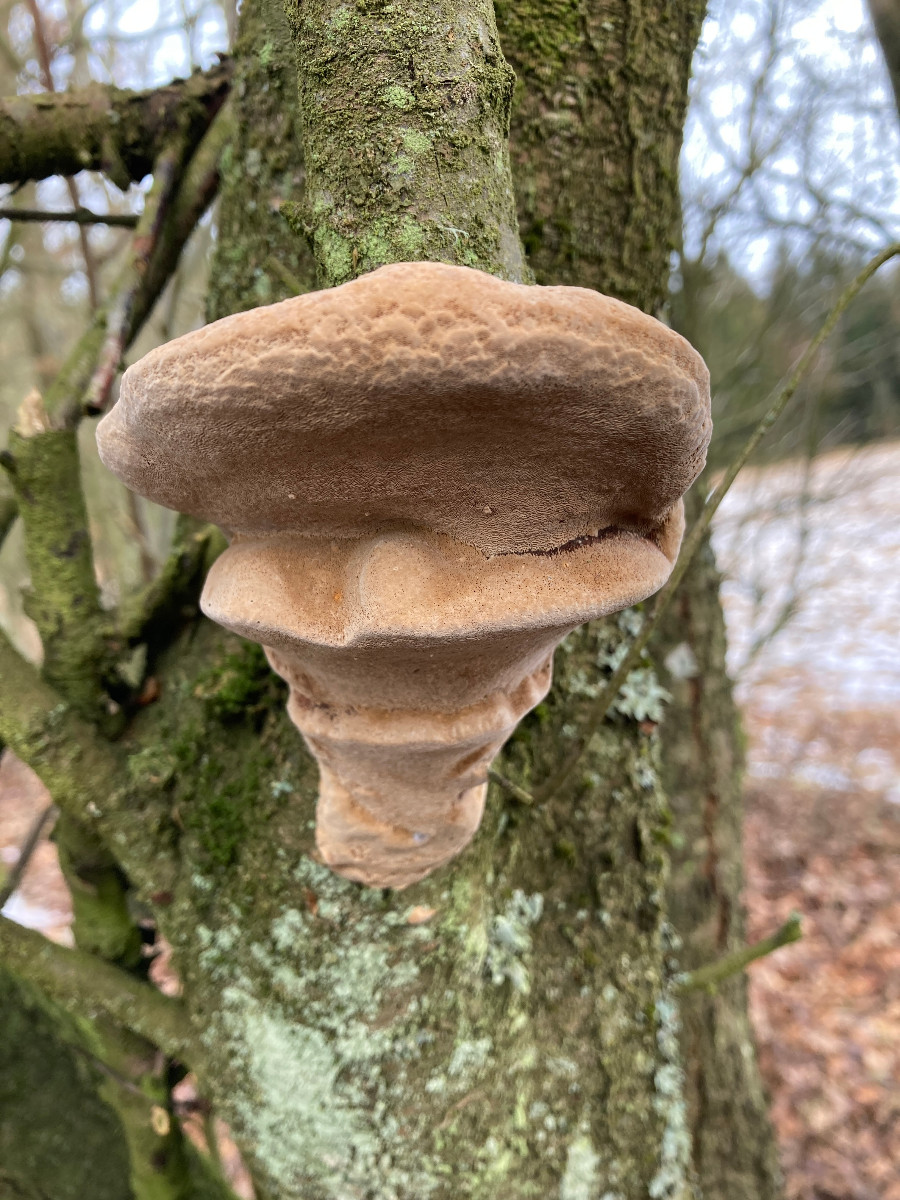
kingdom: Fungi
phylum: Basidiomycota
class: Agaricomycetes
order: Hymenochaetales
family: Hymenochaetaceae
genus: Phellinus
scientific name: Phellinus pomaceus
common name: blomme-ildporesvamp
